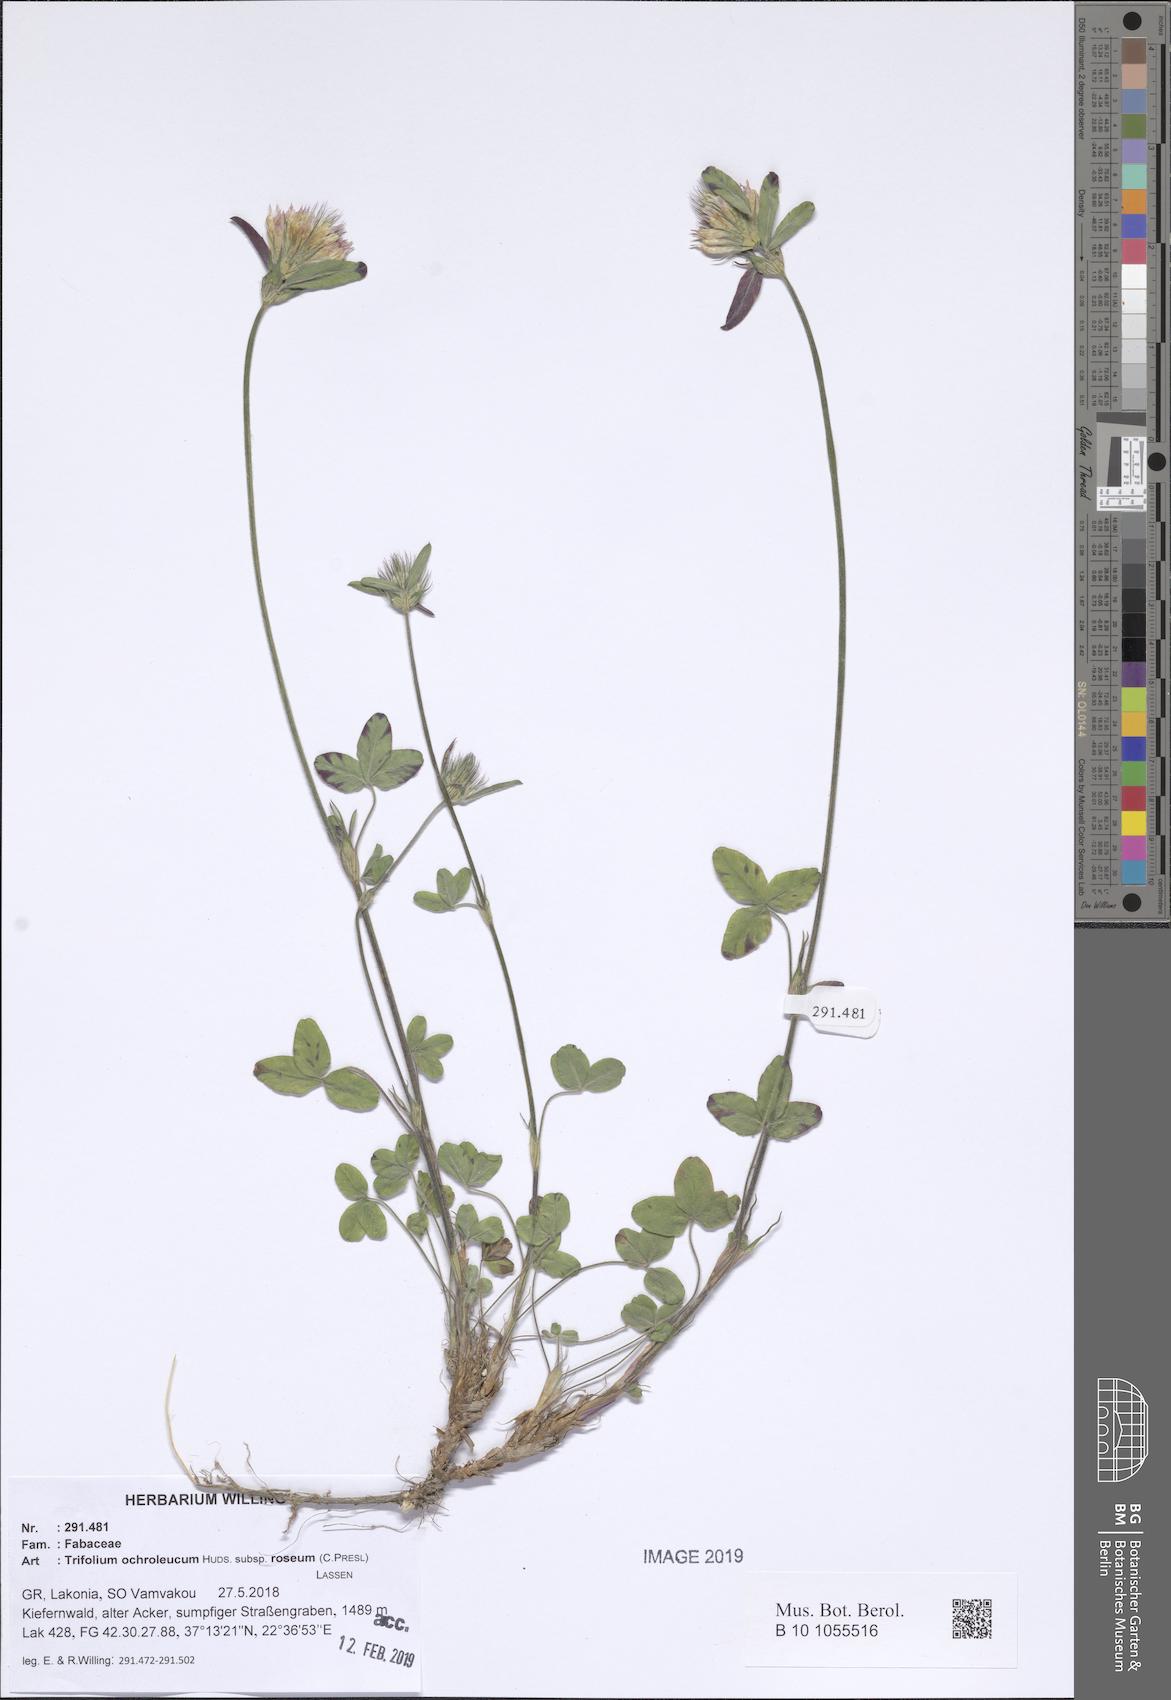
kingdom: Plantae
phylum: Tracheophyta
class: Magnoliopsida
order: Fabales
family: Fabaceae
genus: Trifolium
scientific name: Trifolium ochroleucon
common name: Sulphur clover
